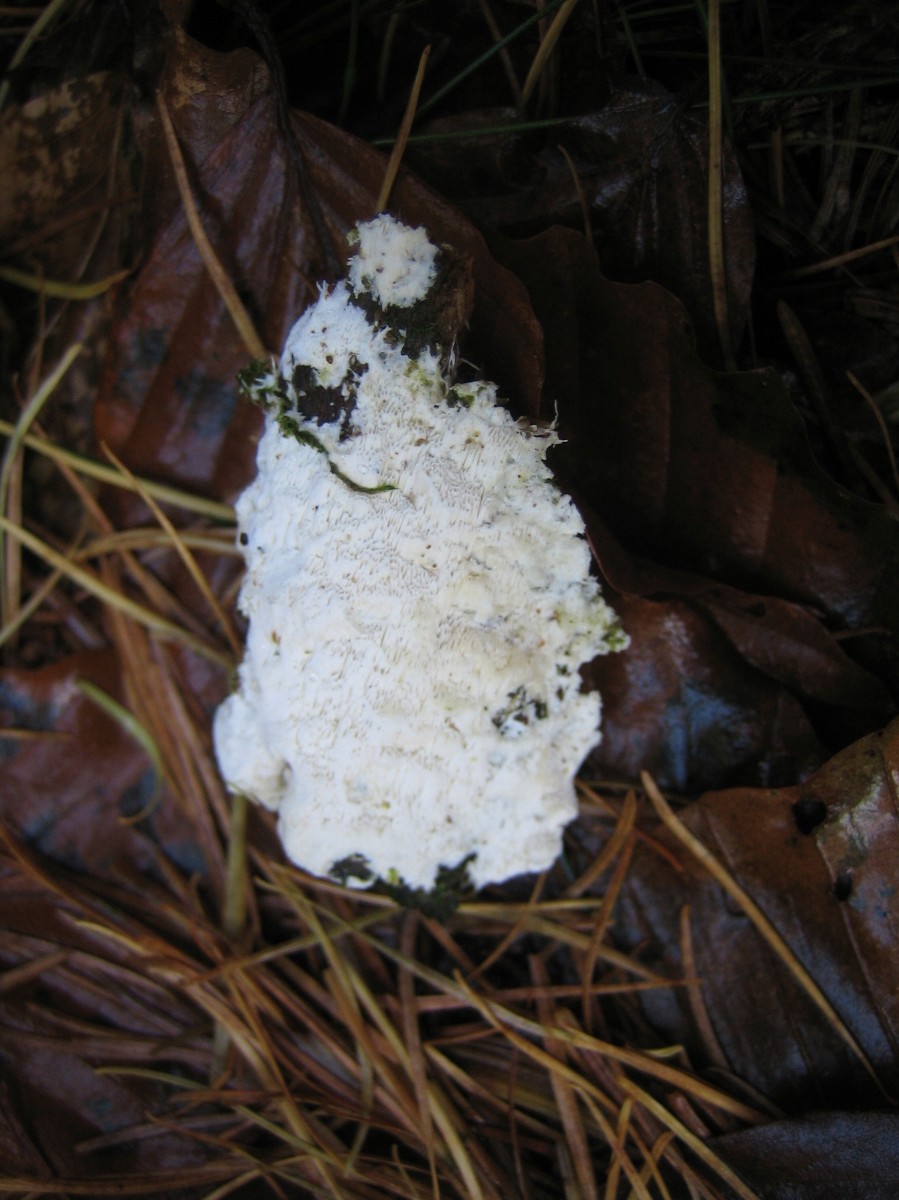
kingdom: Fungi
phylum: Basidiomycota
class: Agaricomycetes
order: Hymenochaetales
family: Schizoporaceae
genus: Xylodon
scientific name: Xylodon
